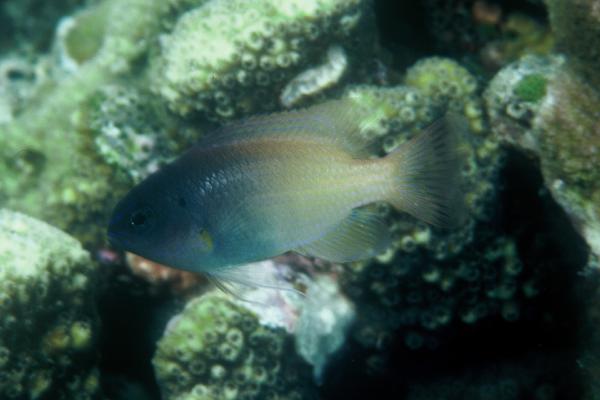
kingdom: Animalia
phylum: Chordata
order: Perciformes
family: Pomacentridae
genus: Chrysiptera
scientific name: Chrysiptera rex
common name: King demoiselle
